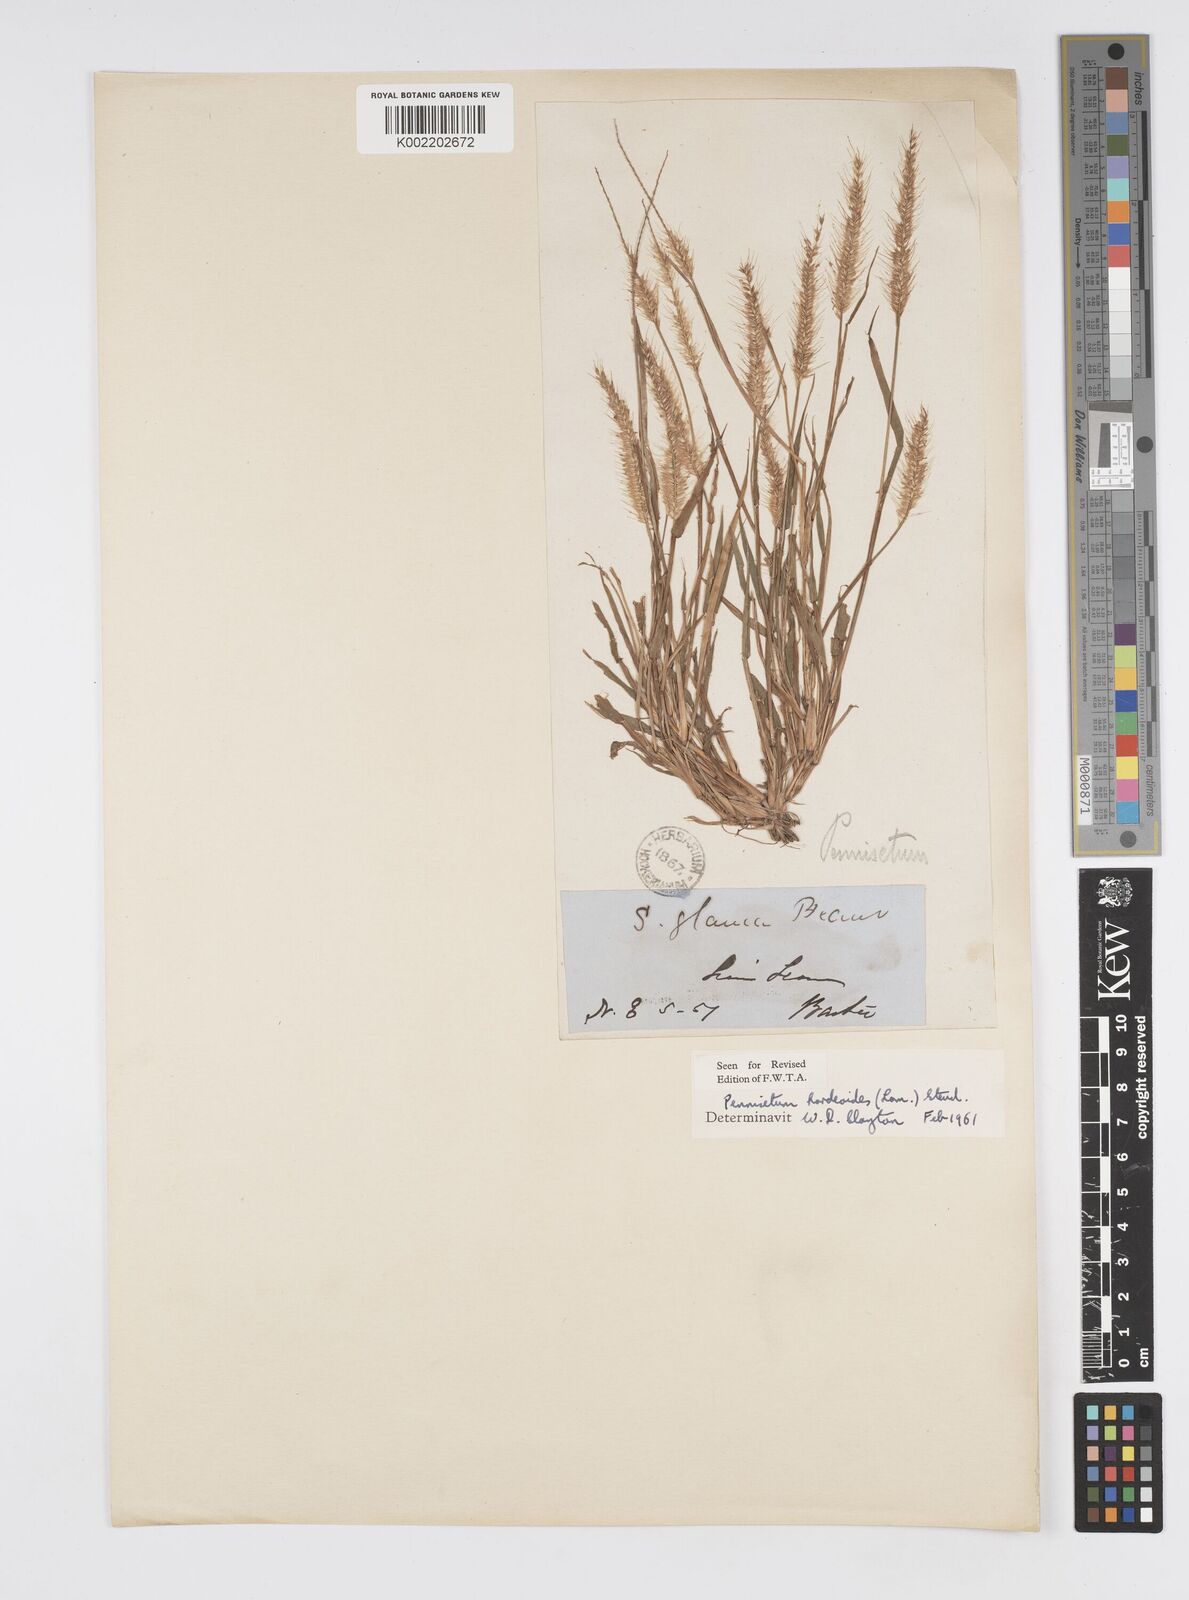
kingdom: Plantae
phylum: Tracheophyta
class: Liliopsida
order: Poales
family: Poaceae
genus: Cenchrus
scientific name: Cenchrus hordeoides
